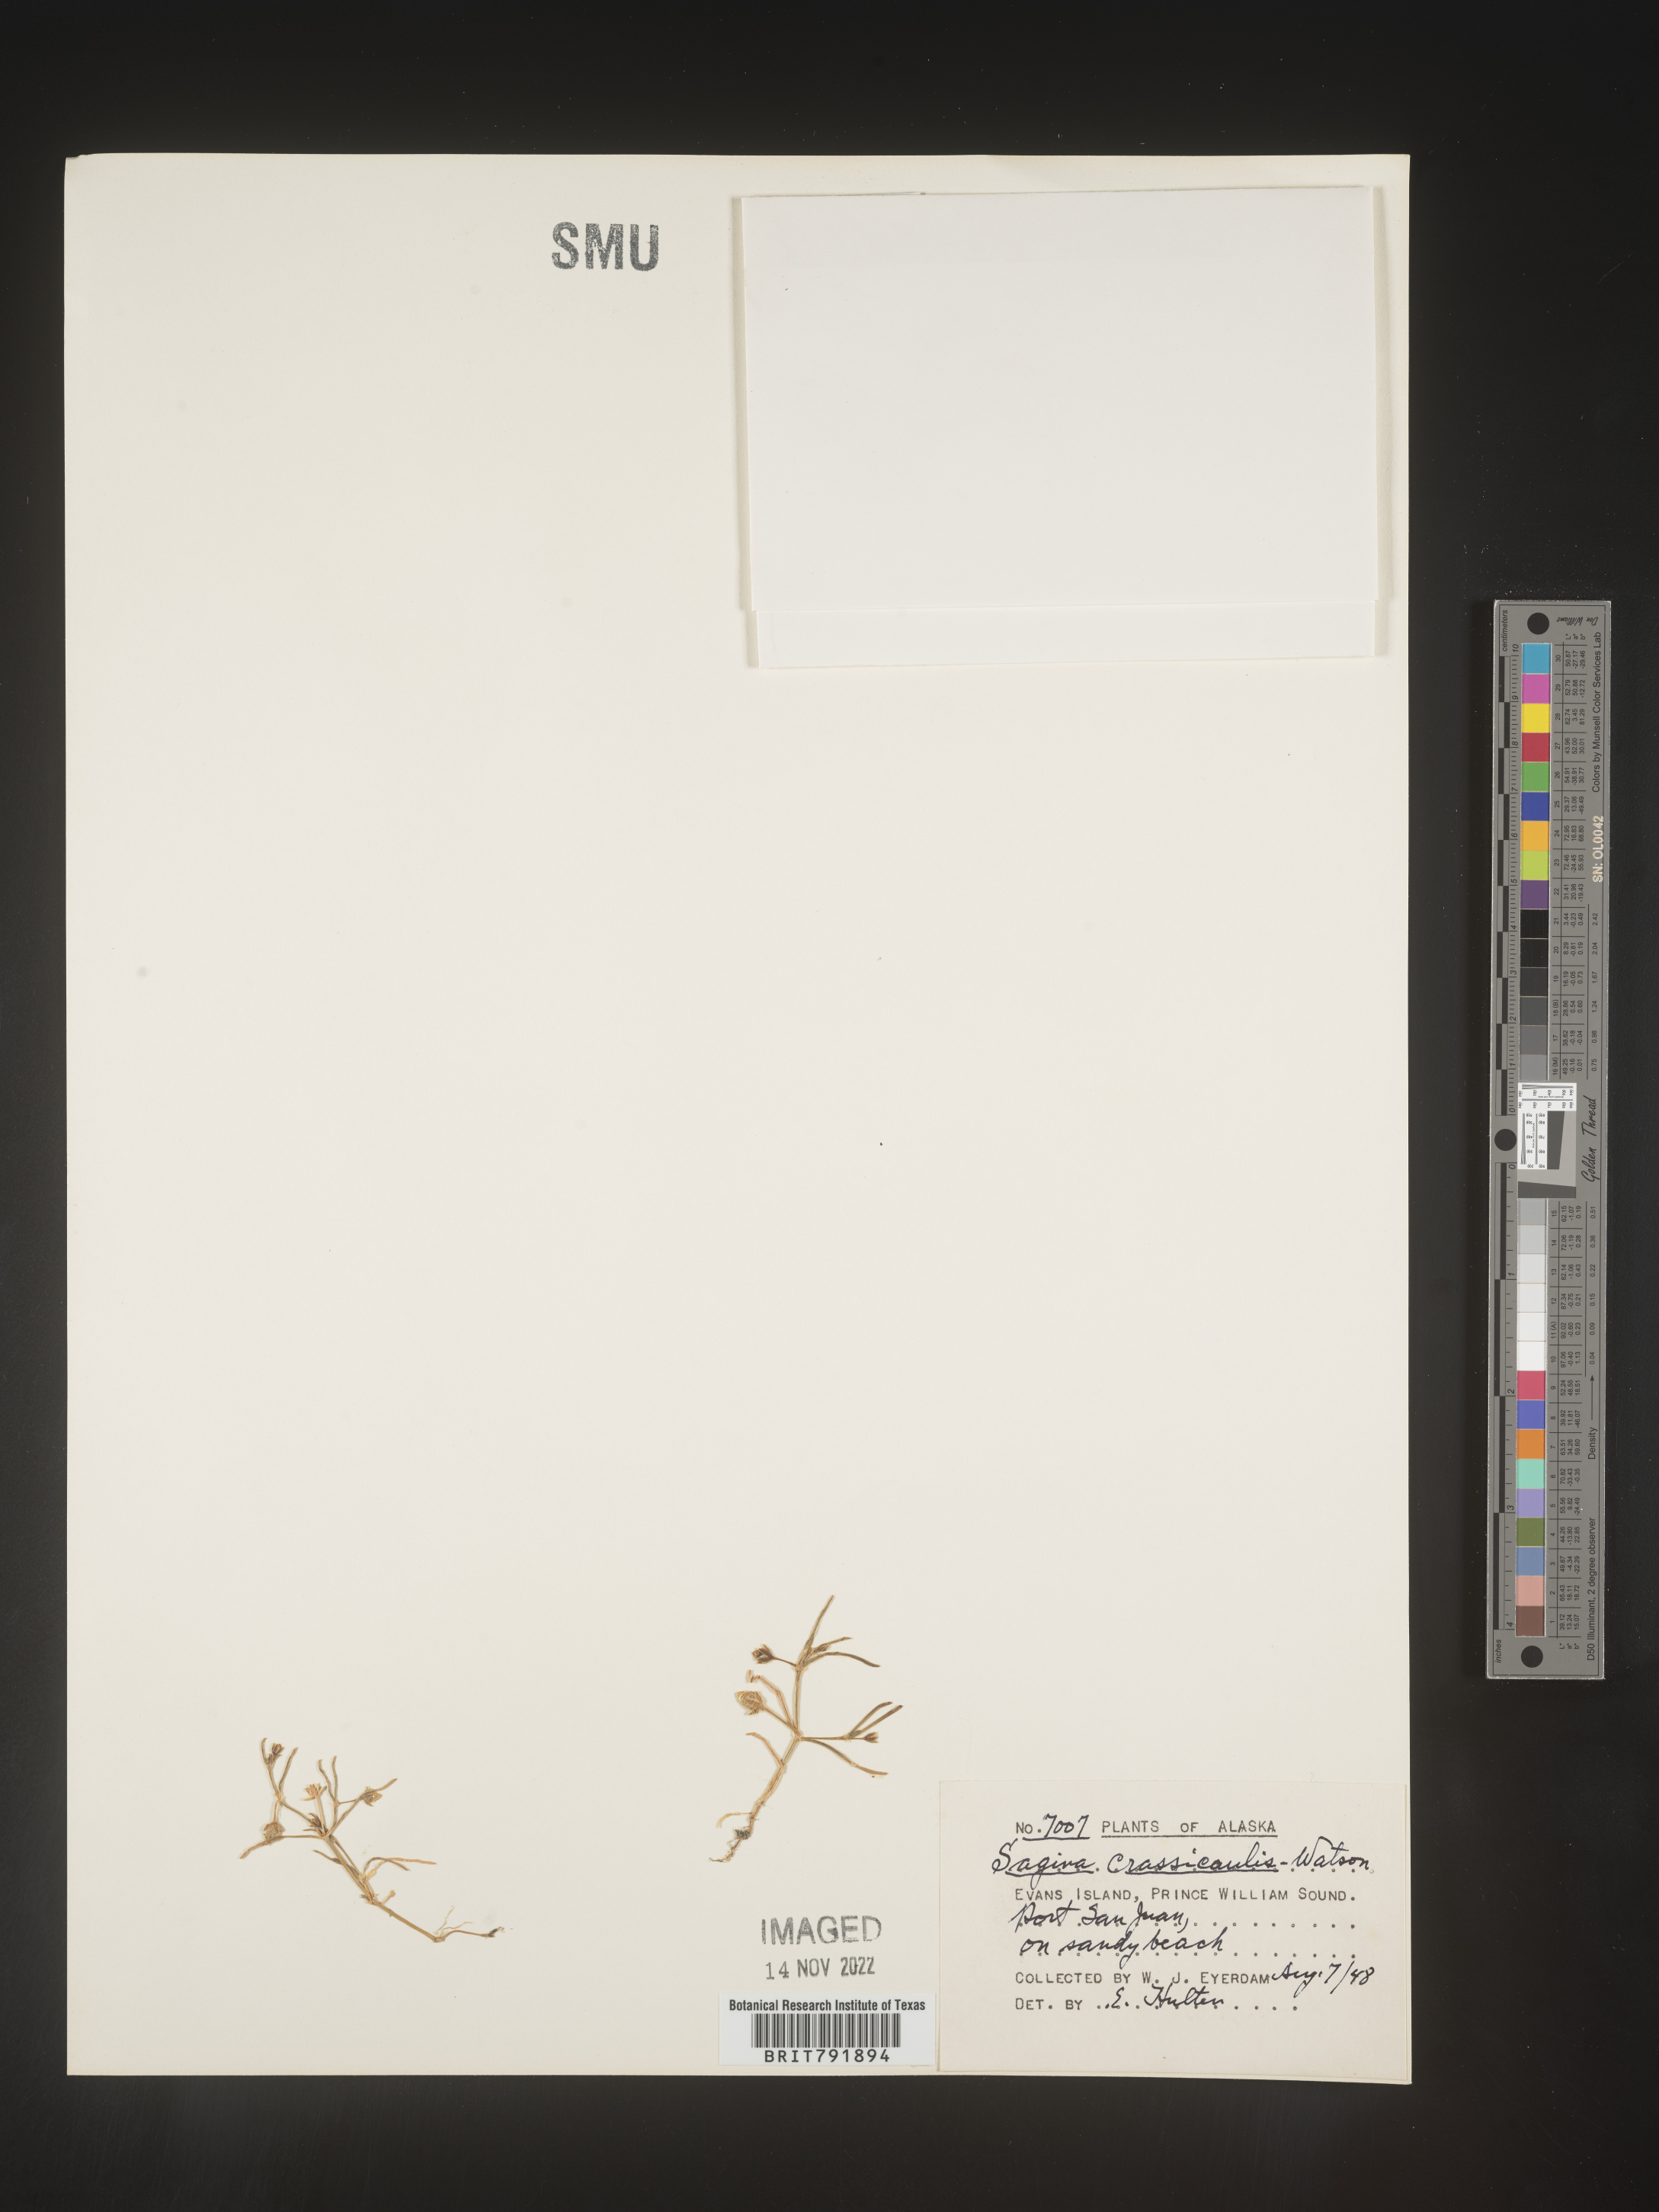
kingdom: Plantae
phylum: Tracheophyta
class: Magnoliopsida
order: Caryophyllales
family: Caryophyllaceae
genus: Sagina
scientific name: Sagina
